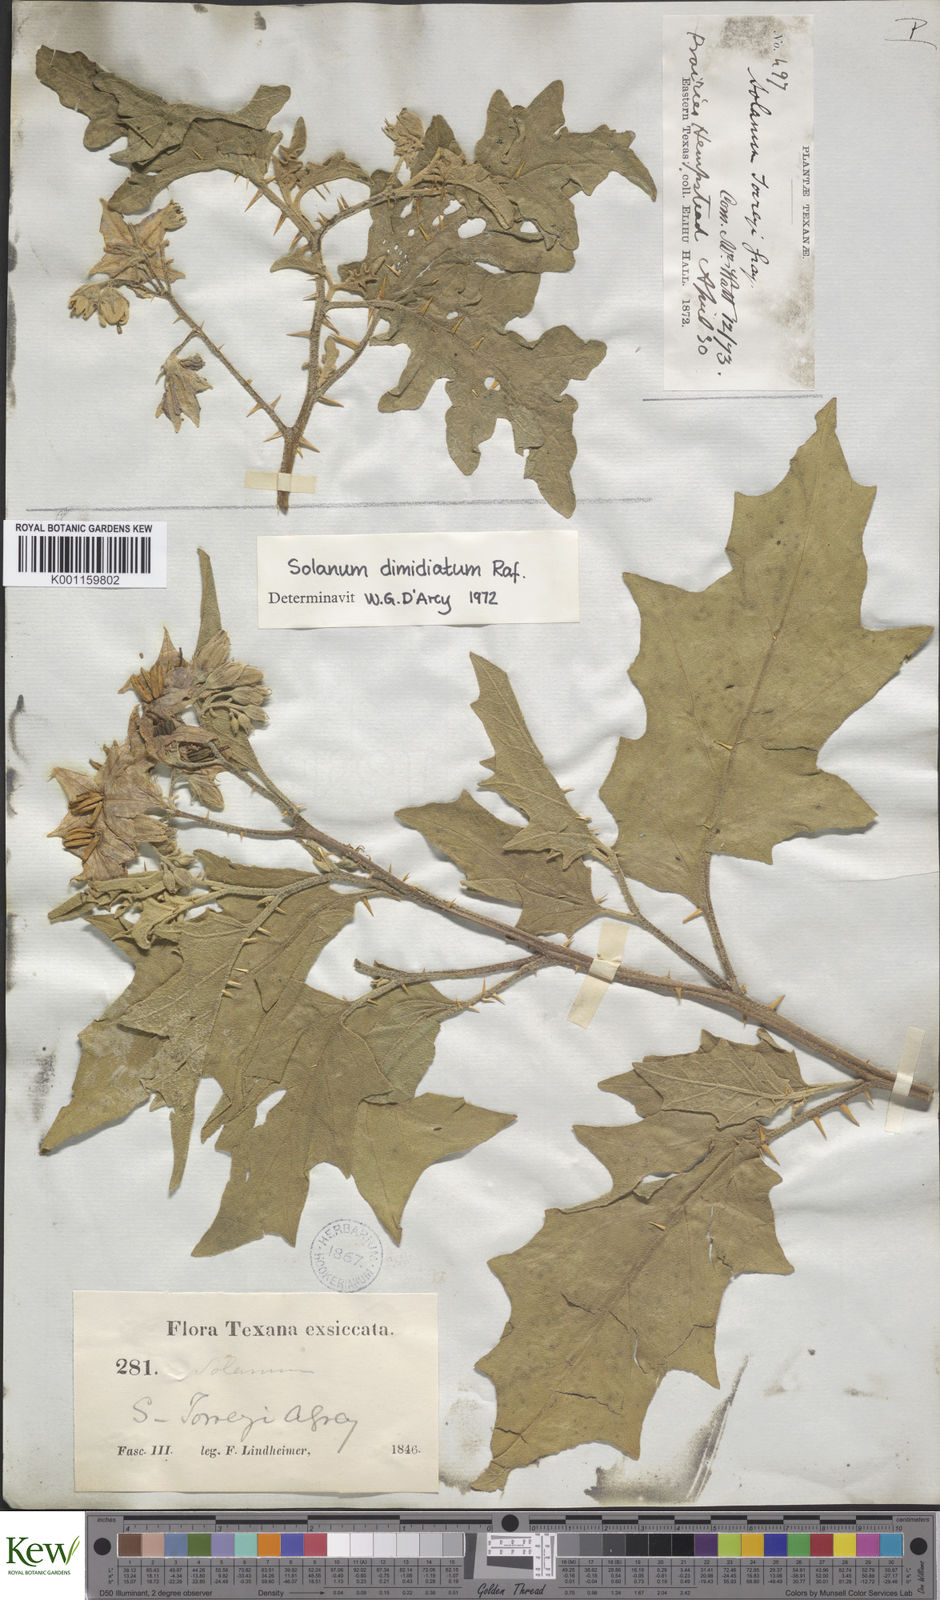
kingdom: Plantae
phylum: Tracheophyta
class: Magnoliopsida
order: Solanales
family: Solanaceae
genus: Solanum
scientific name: Solanum
